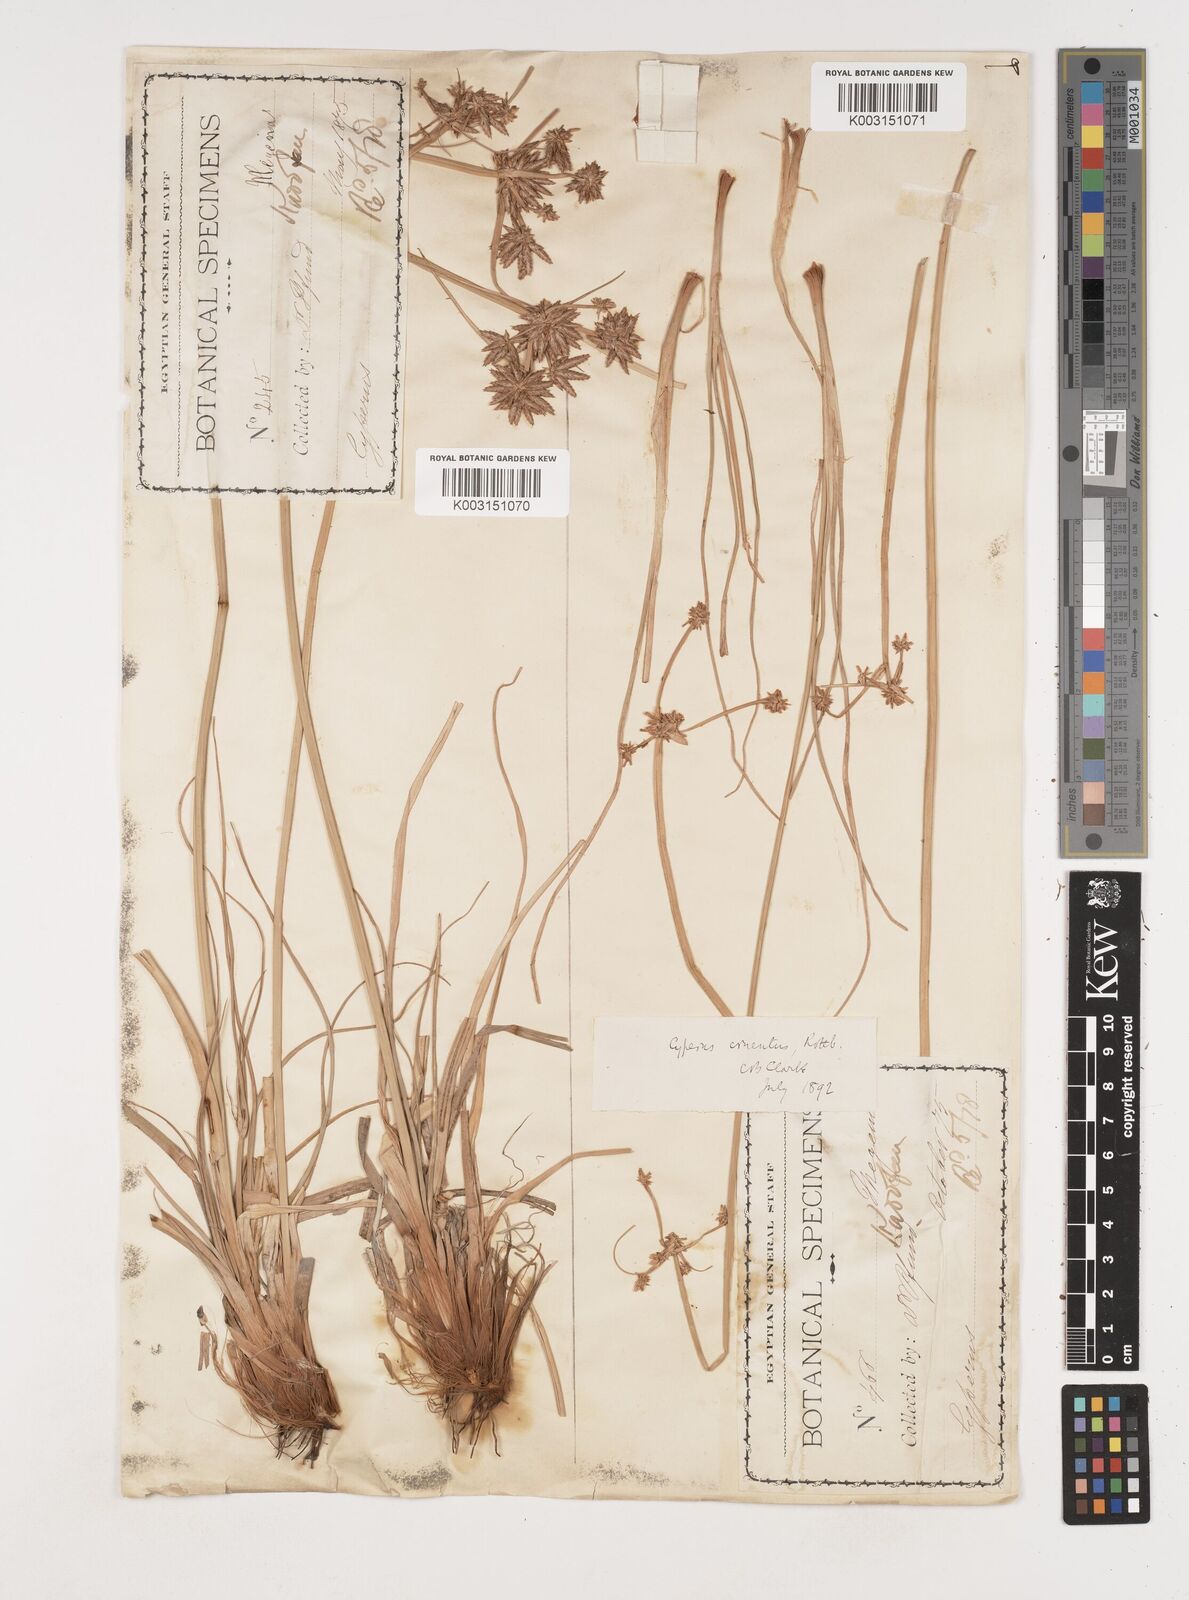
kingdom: Plantae
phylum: Tracheophyta
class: Liliopsida
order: Poales
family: Cyperaceae
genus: Cyperus
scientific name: Cyperus jeminicus
